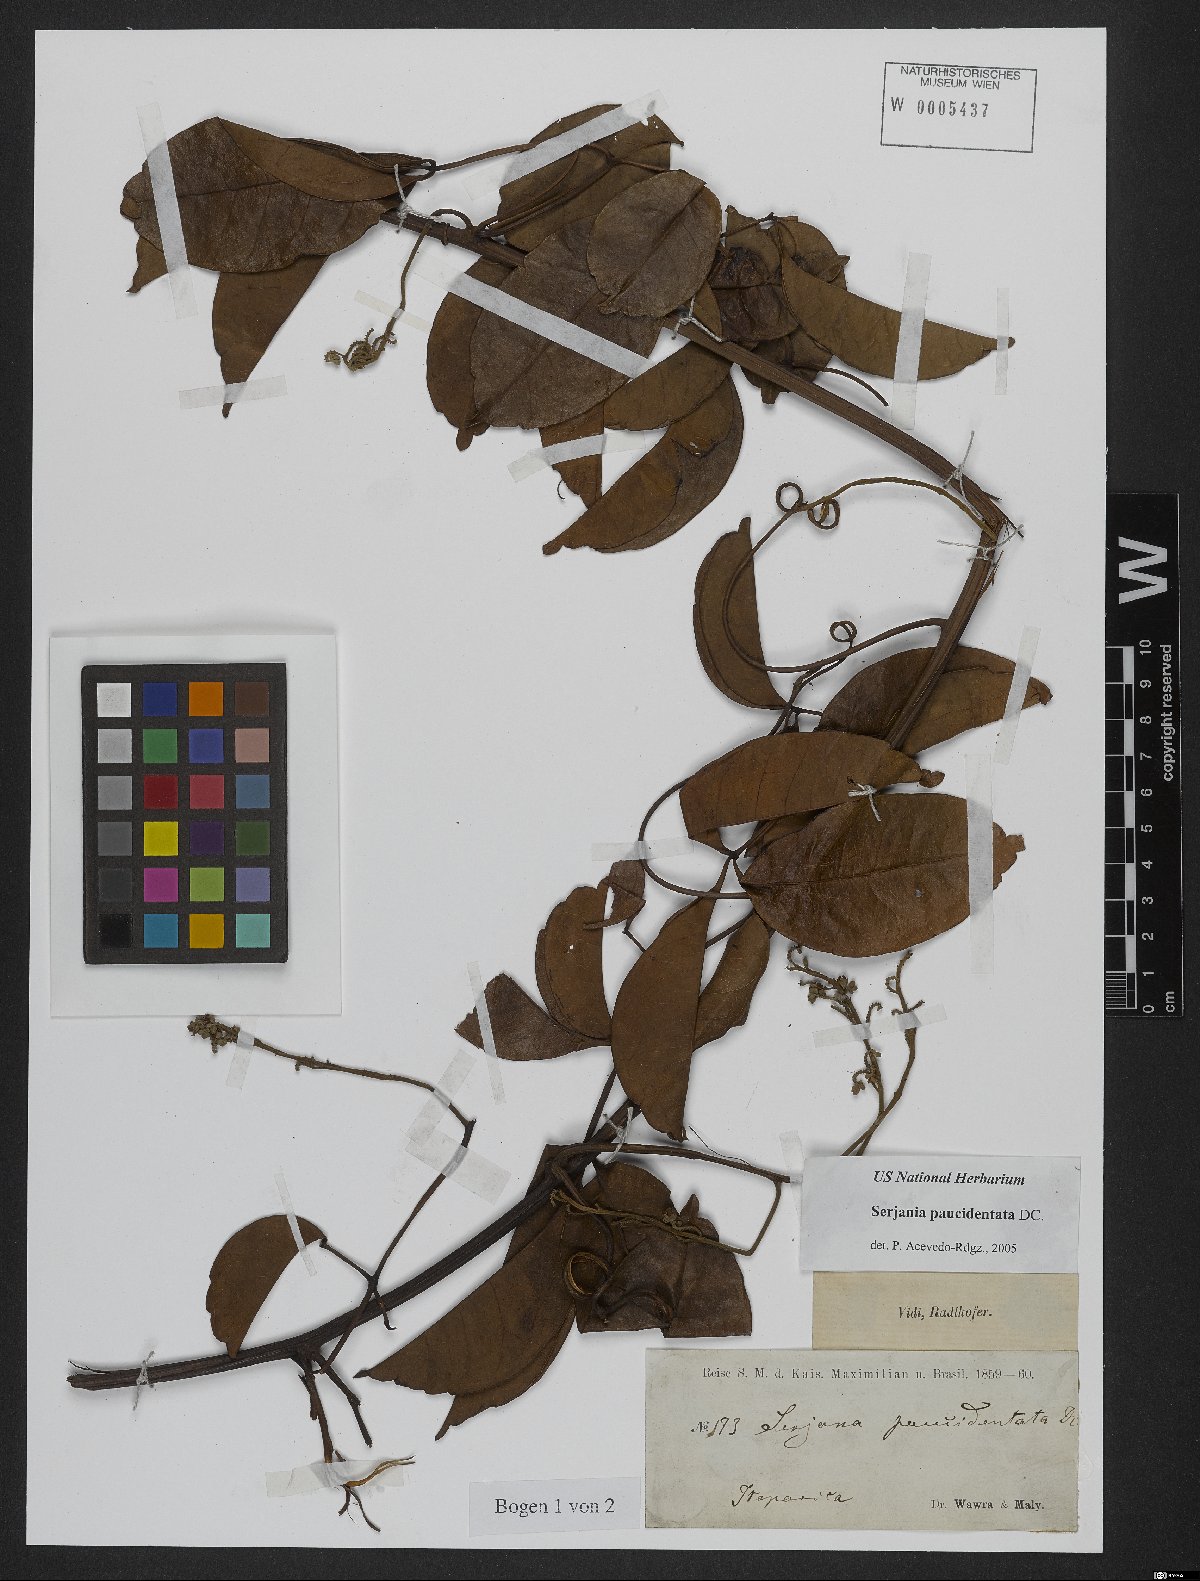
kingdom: Plantae
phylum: Tracheophyta
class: Magnoliopsida
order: Sapindales
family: Sapindaceae
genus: Serjania
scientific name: Serjania paucidentata
